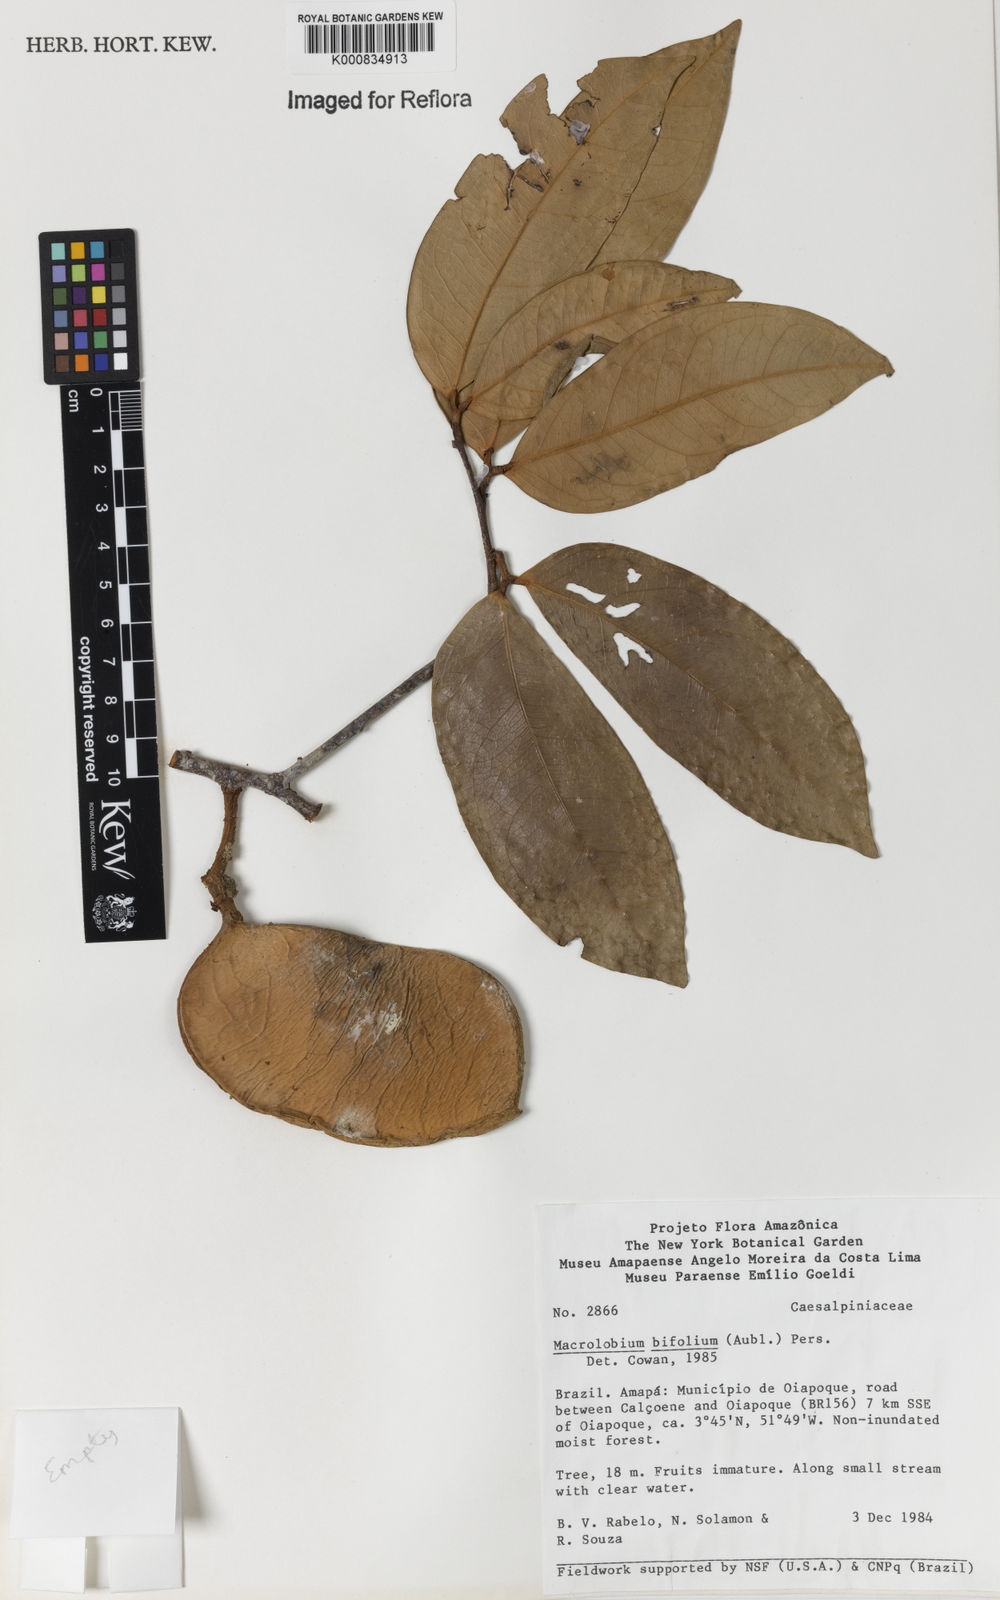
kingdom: Plantae
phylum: Tracheophyta
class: Magnoliopsida
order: Fabales
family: Fabaceae
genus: Macrolobium
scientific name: Macrolobium bifolium
